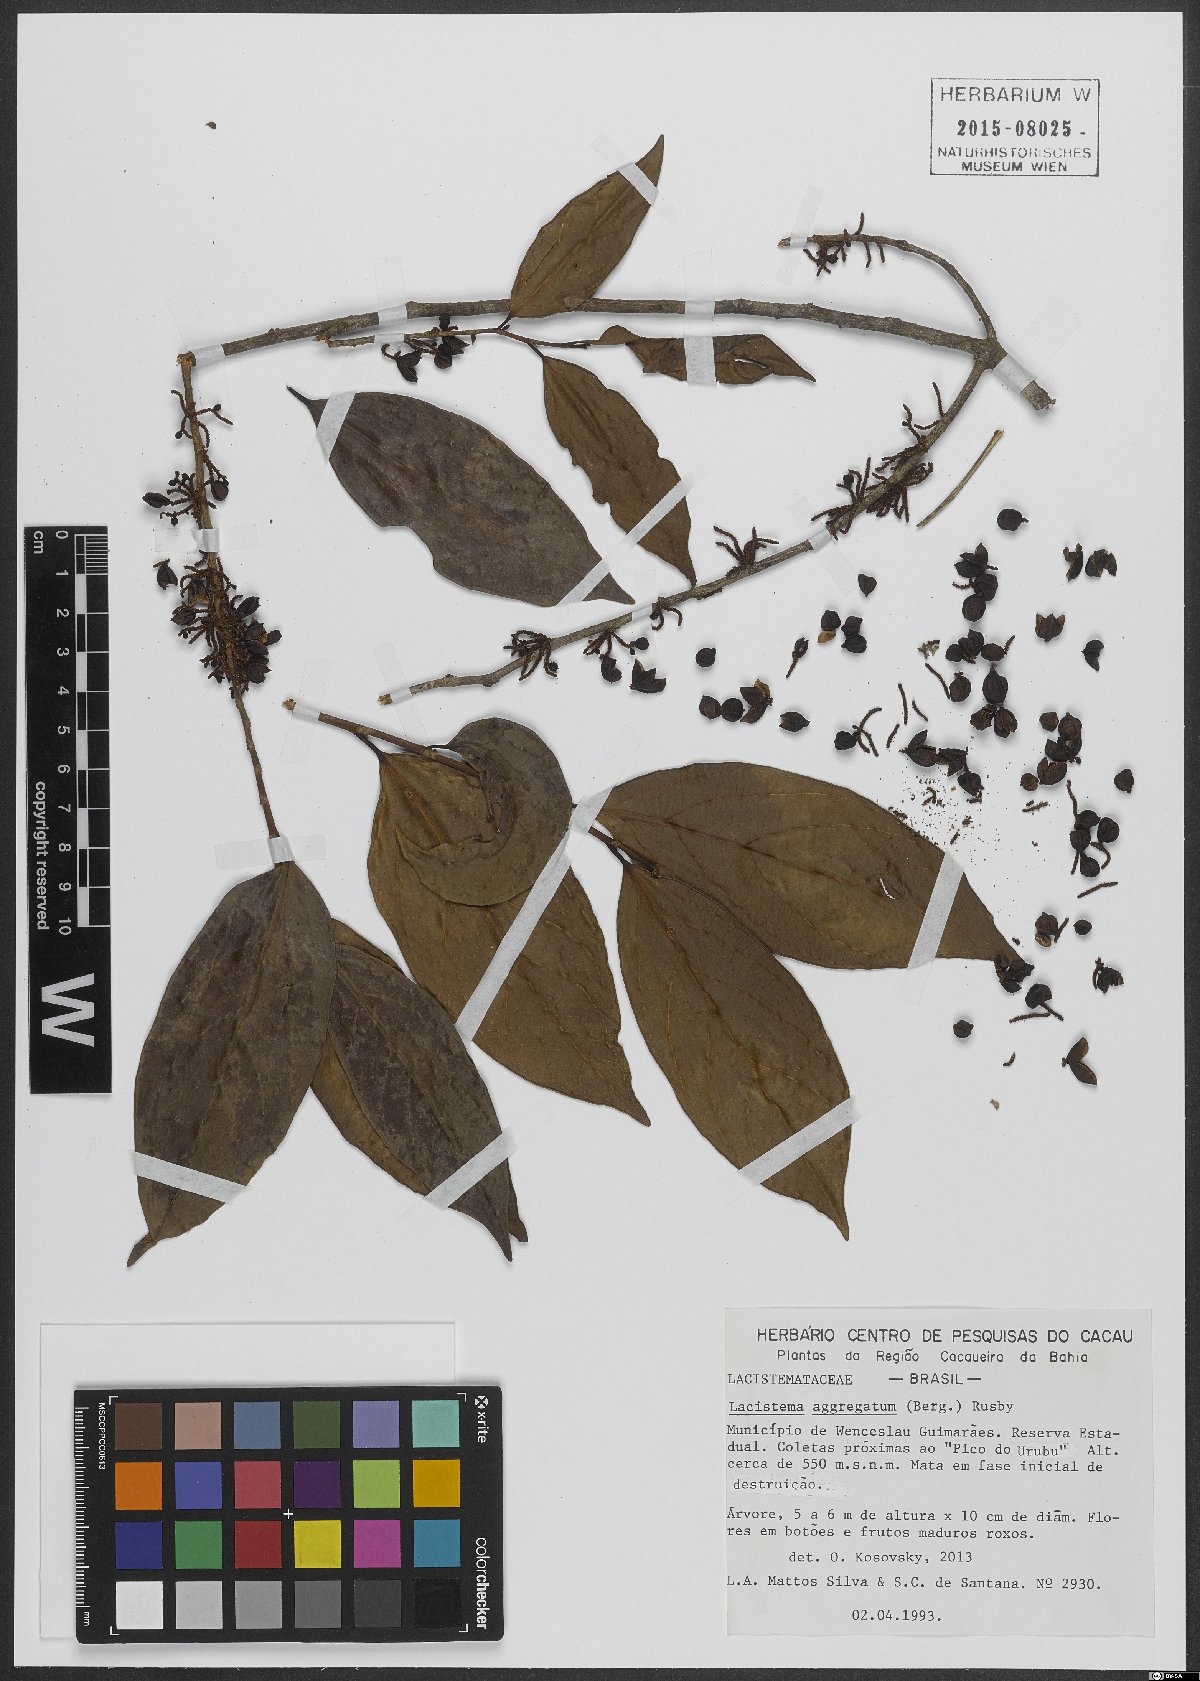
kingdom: Plantae
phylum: Tracheophyta
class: Magnoliopsida
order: Malpighiales
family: Lacistemataceae
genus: Lacistema
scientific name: Lacistema aggregatum
